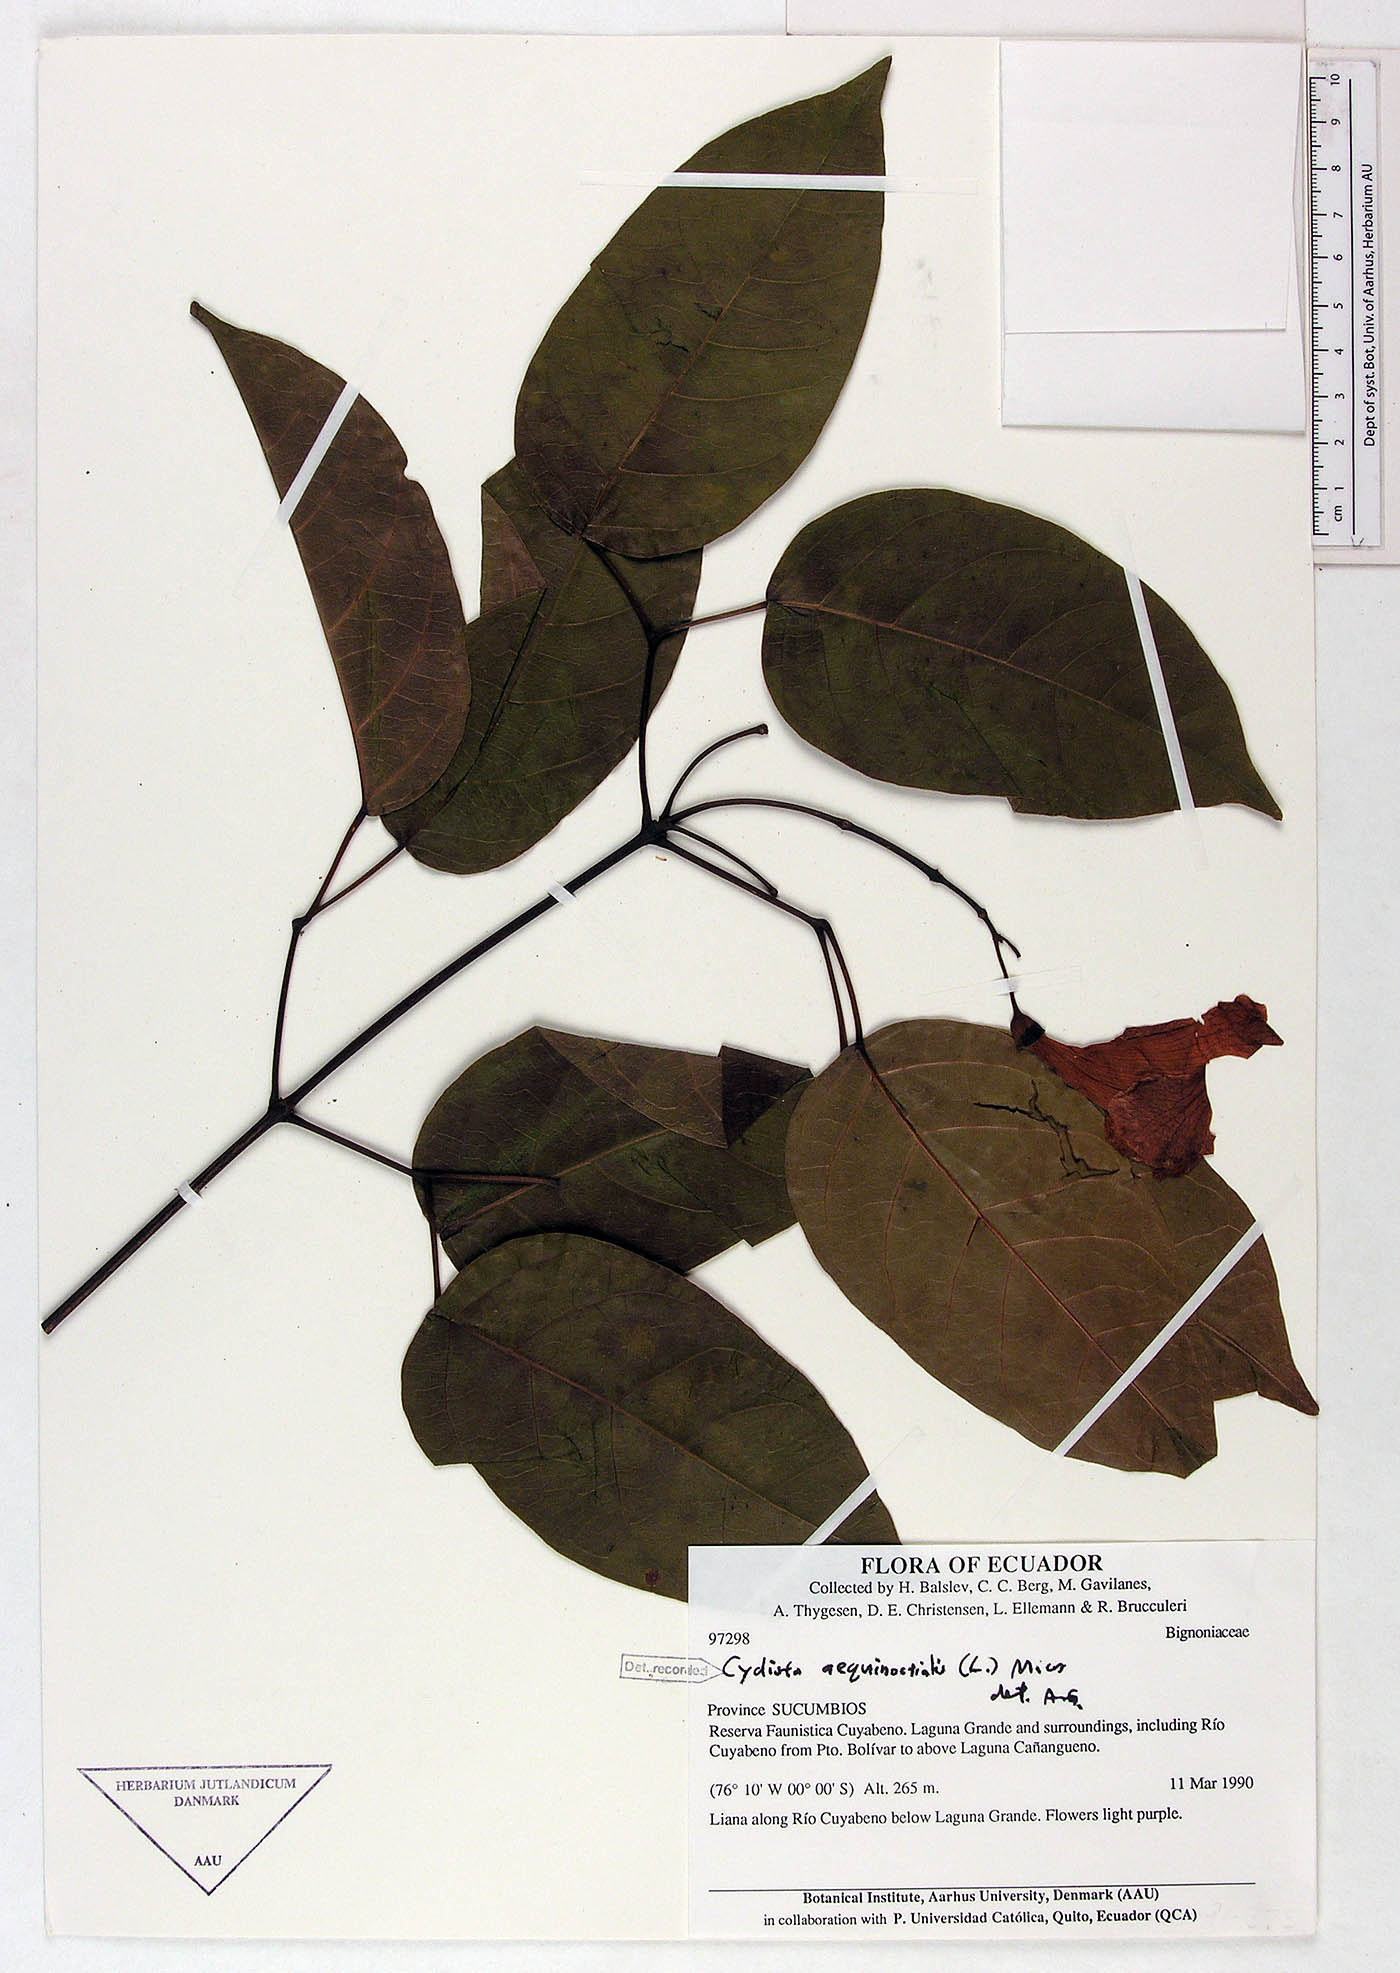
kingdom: Plantae
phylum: Tracheophyta
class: Magnoliopsida
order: Lamiales
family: Bignoniaceae
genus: Bignonia
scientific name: Bignonia aequinoctialis
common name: Garlicvine
